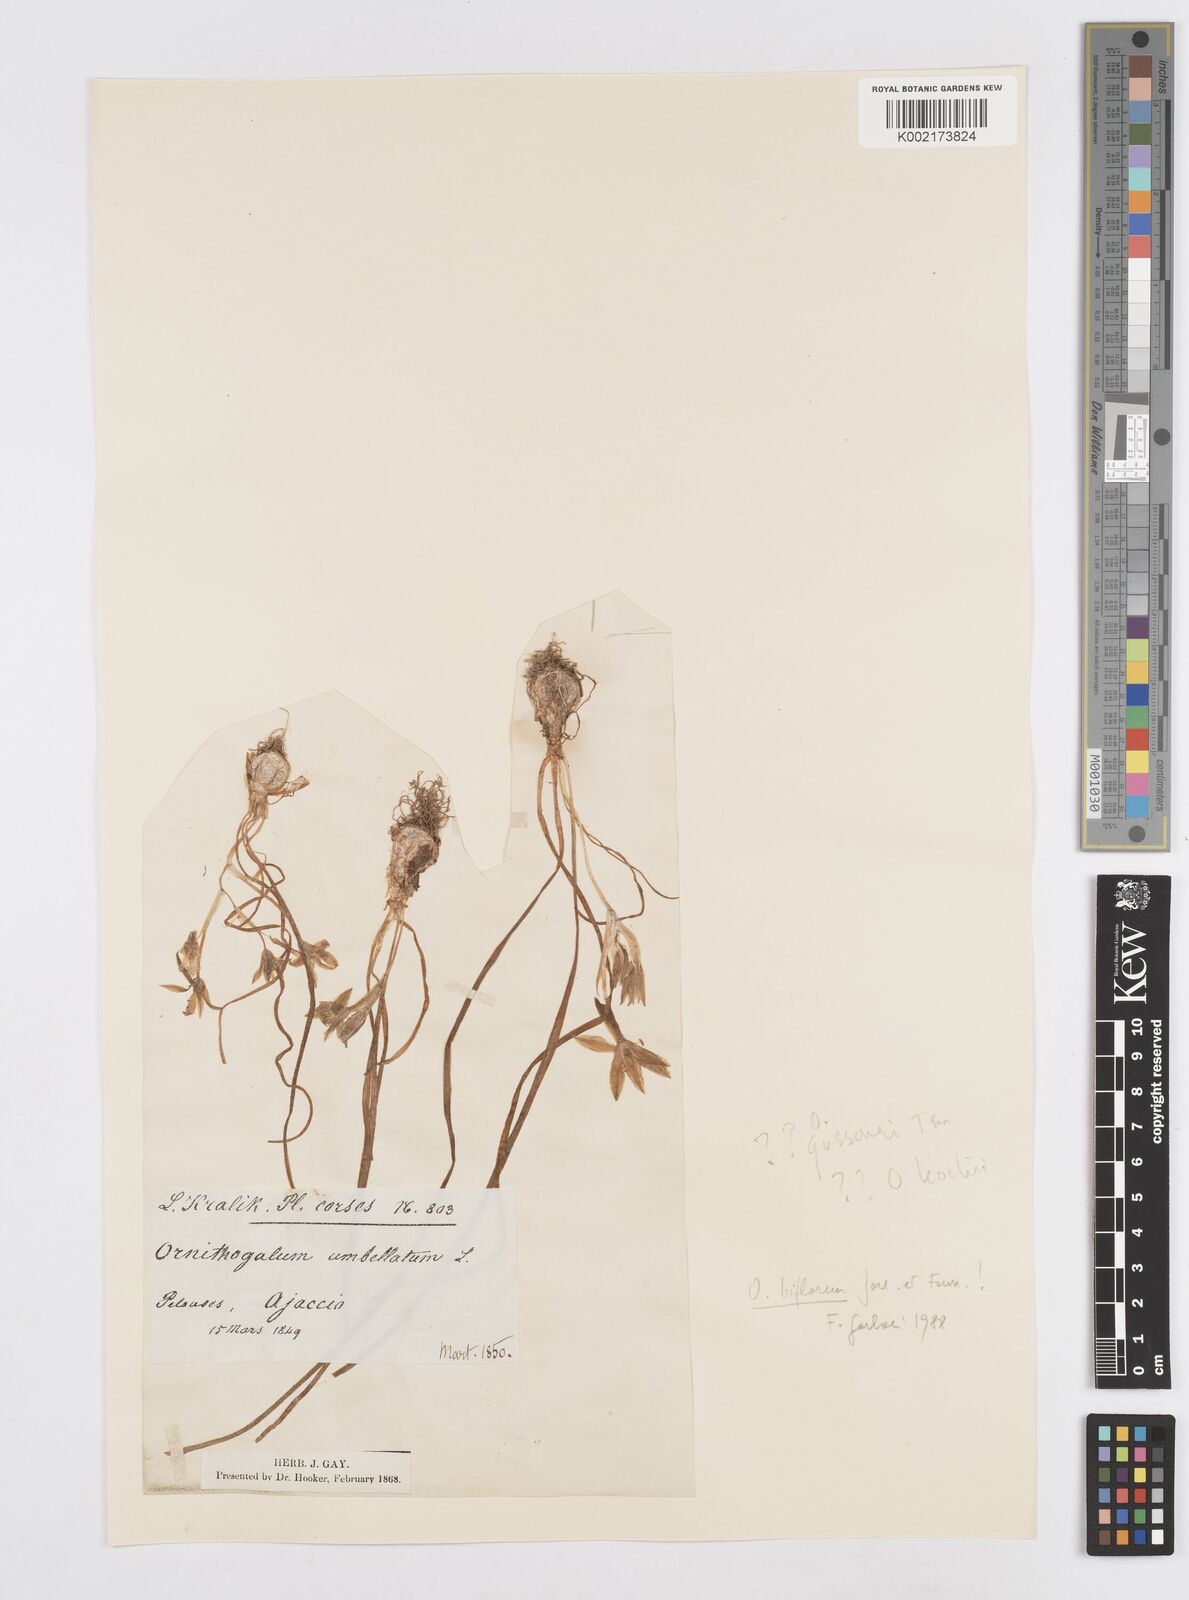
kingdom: Plantae
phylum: Tracheophyta
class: Liliopsida
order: Asparagales
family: Asparagaceae
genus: Ornithogalum
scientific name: Ornithogalum umbellatum
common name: Garden star-of-bethlehem
